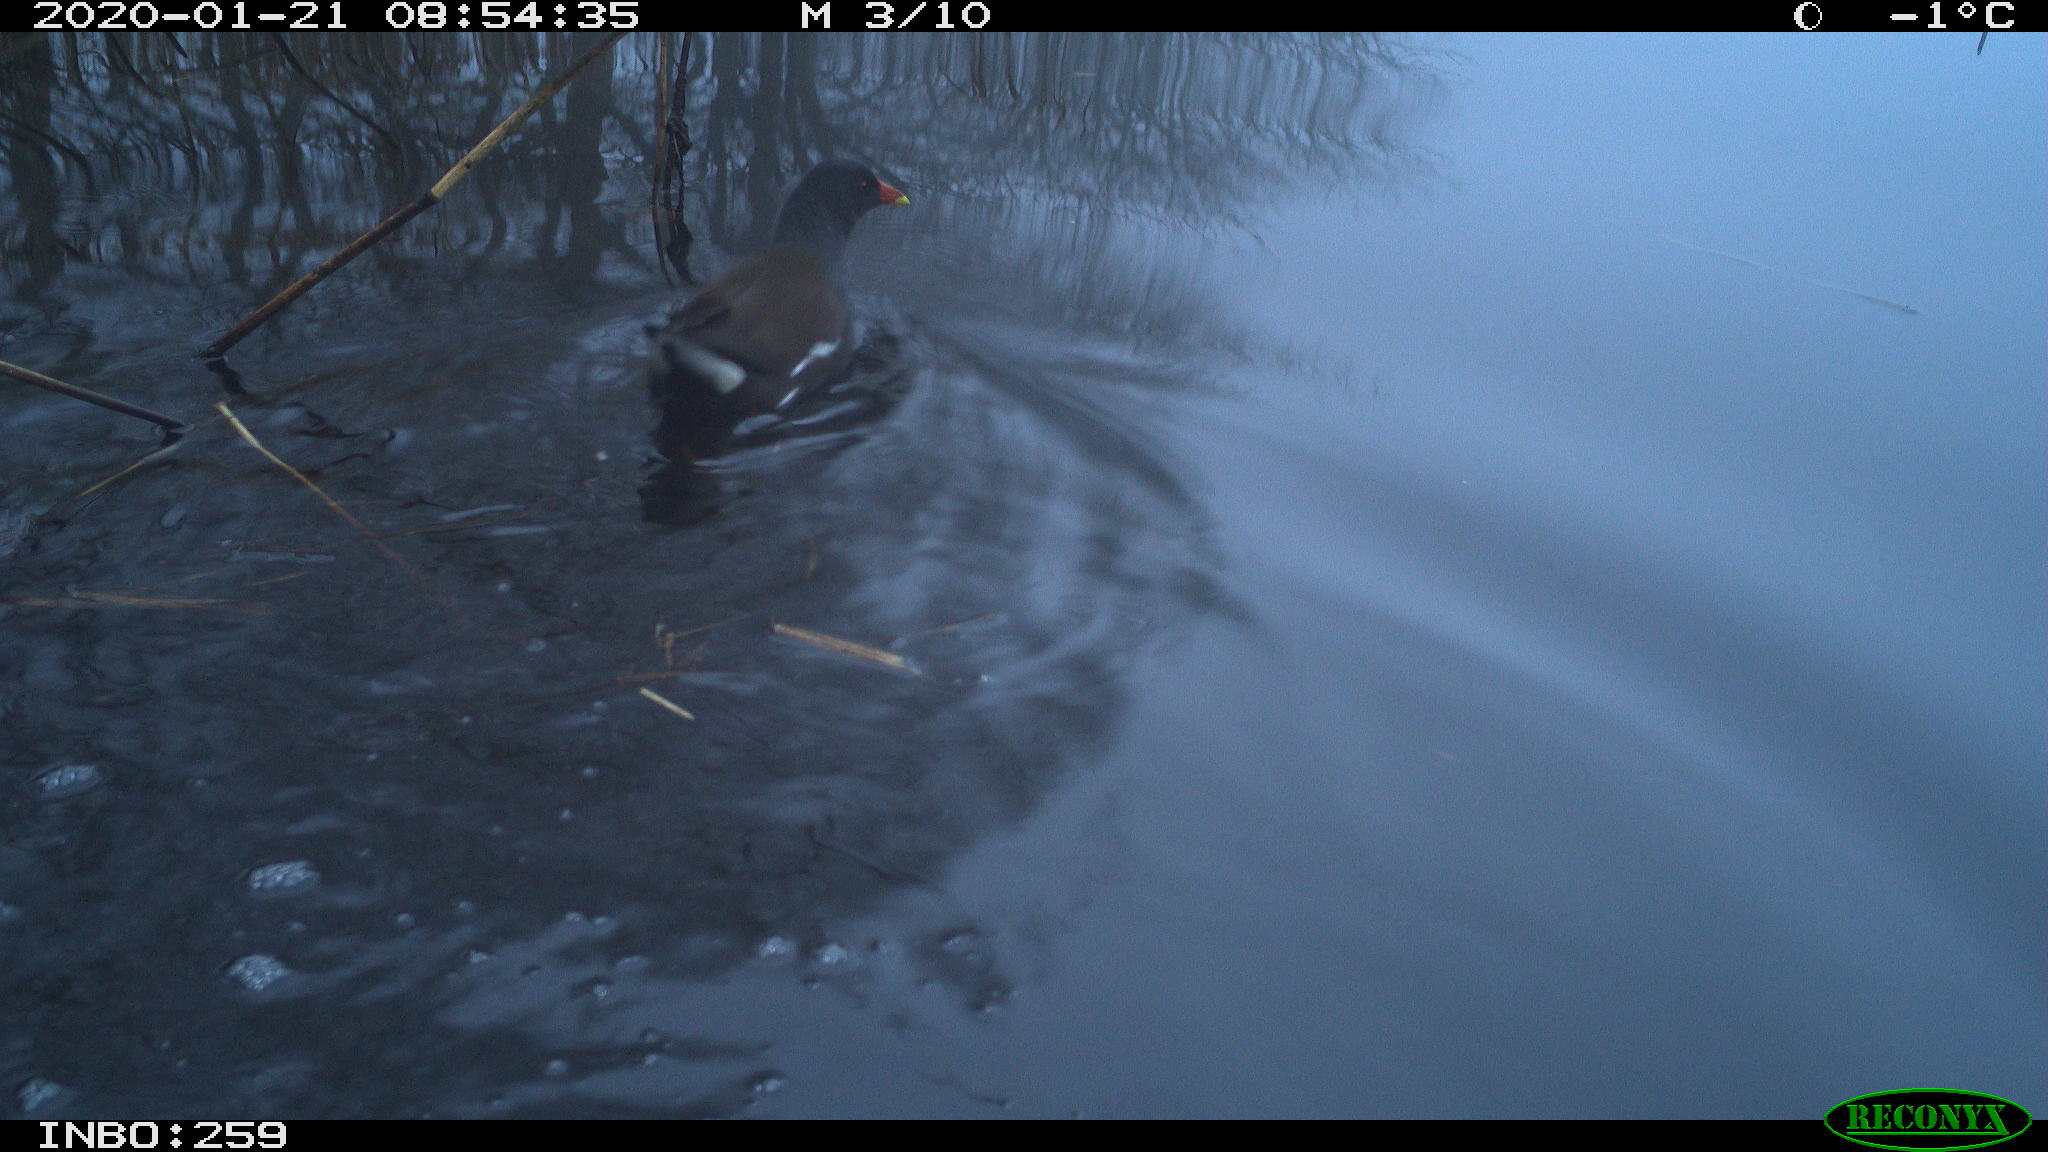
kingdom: Animalia
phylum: Chordata
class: Aves
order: Gruiformes
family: Rallidae
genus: Gallinula
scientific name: Gallinula chloropus
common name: Common moorhen
